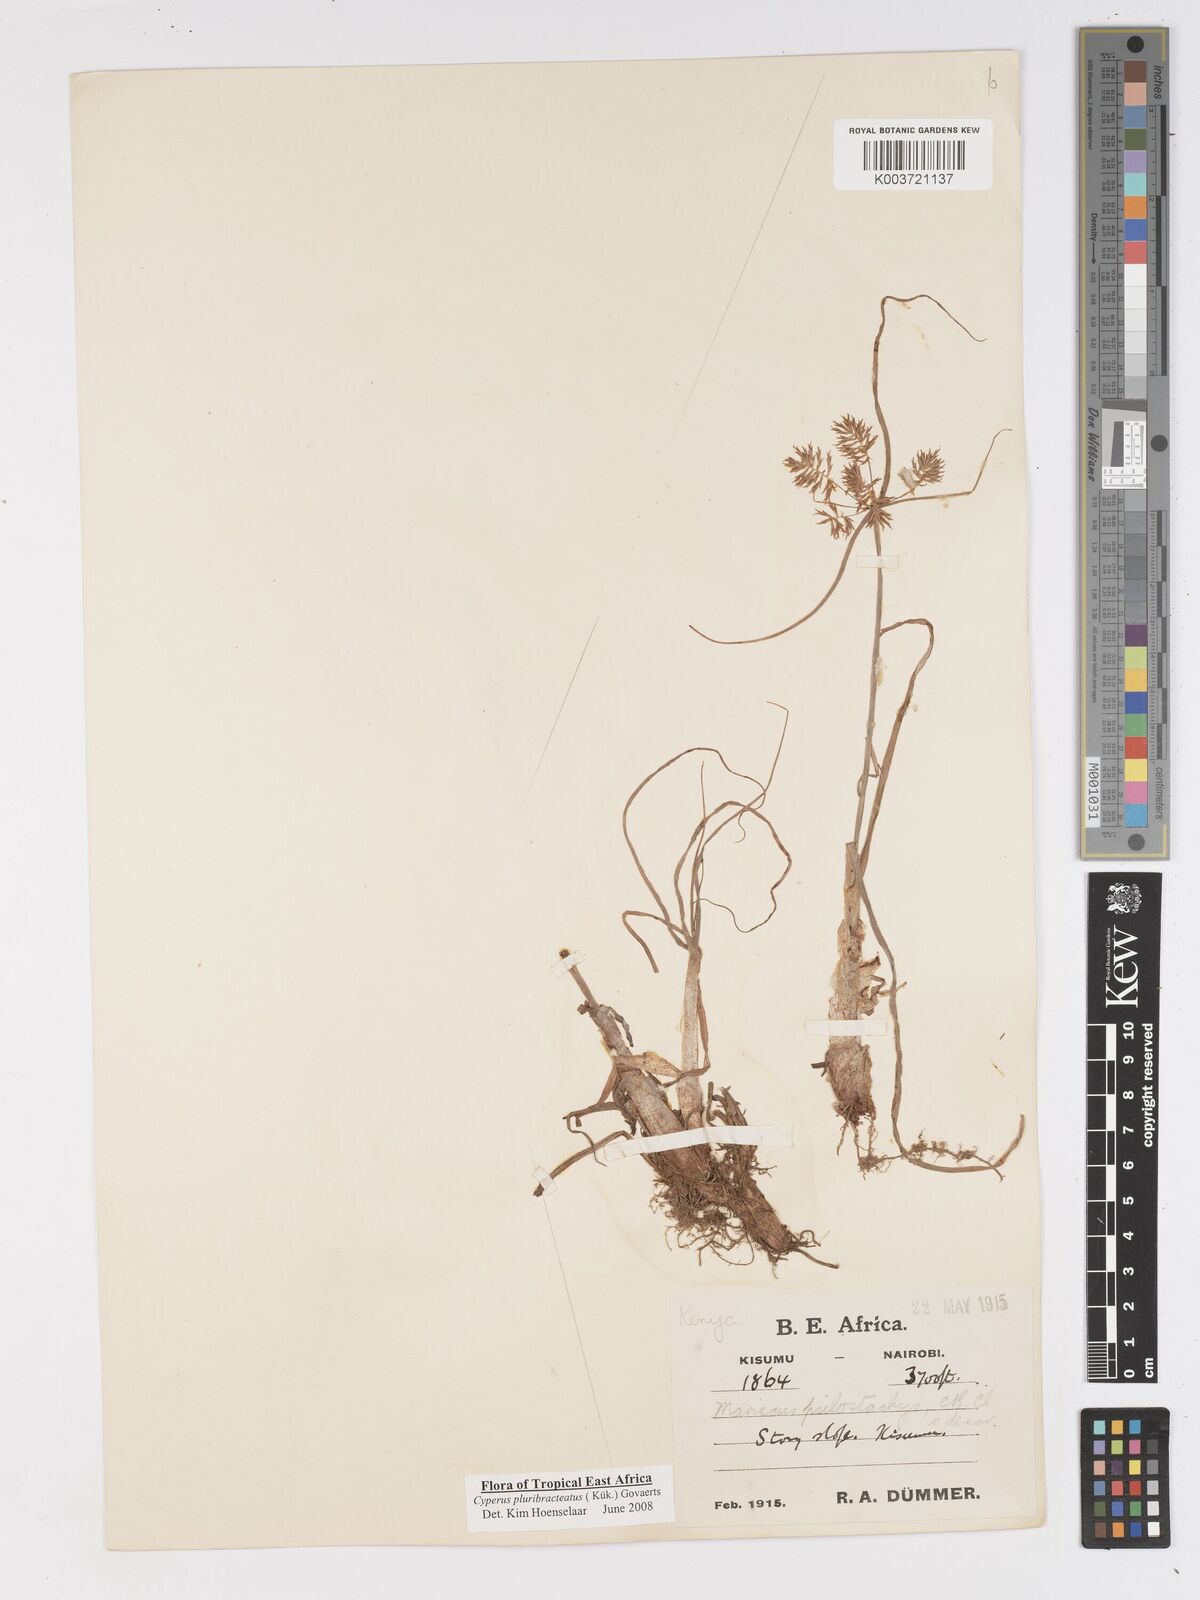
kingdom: Plantae
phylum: Tracheophyta
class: Liliopsida
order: Poales
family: Cyperaceae
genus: Cyperus
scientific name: Cyperus trigonellus
